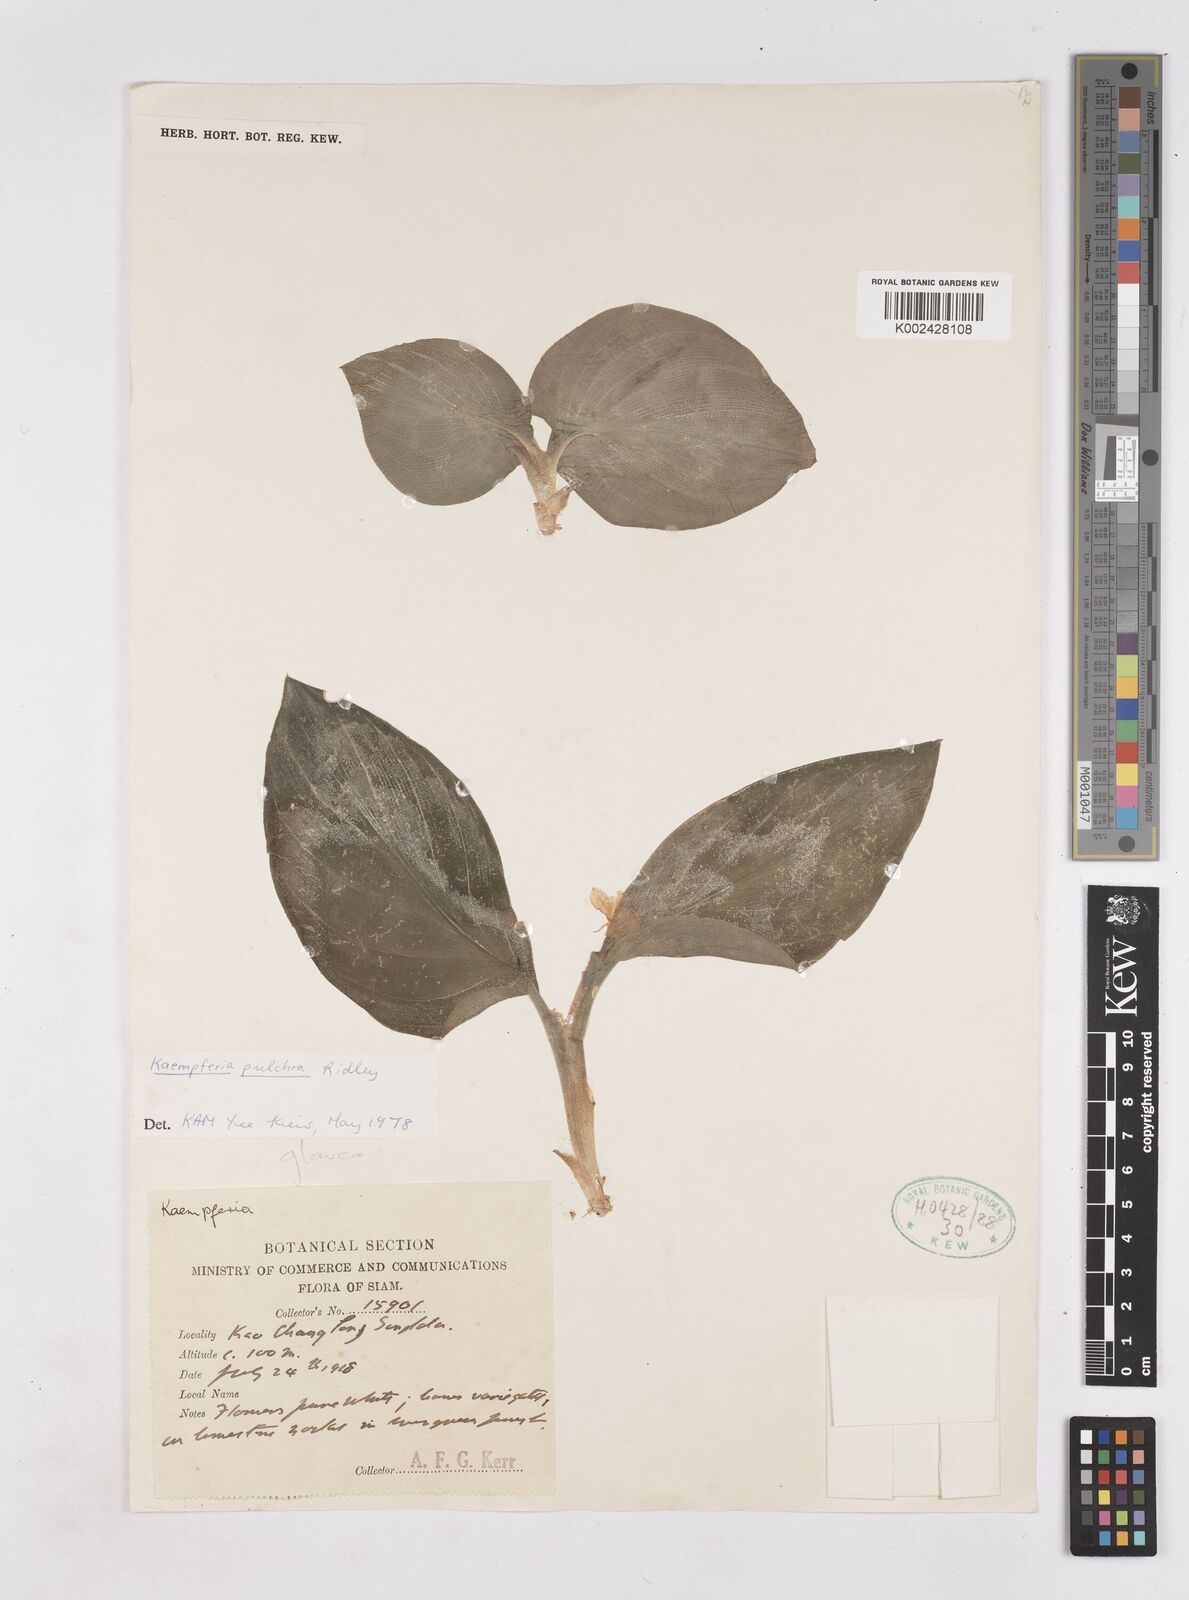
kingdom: Plantae
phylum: Tracheophyta
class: Liliopsida
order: Zingiberales
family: Zingiberaceae
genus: Kaempferia
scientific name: Kaempferia elegans
